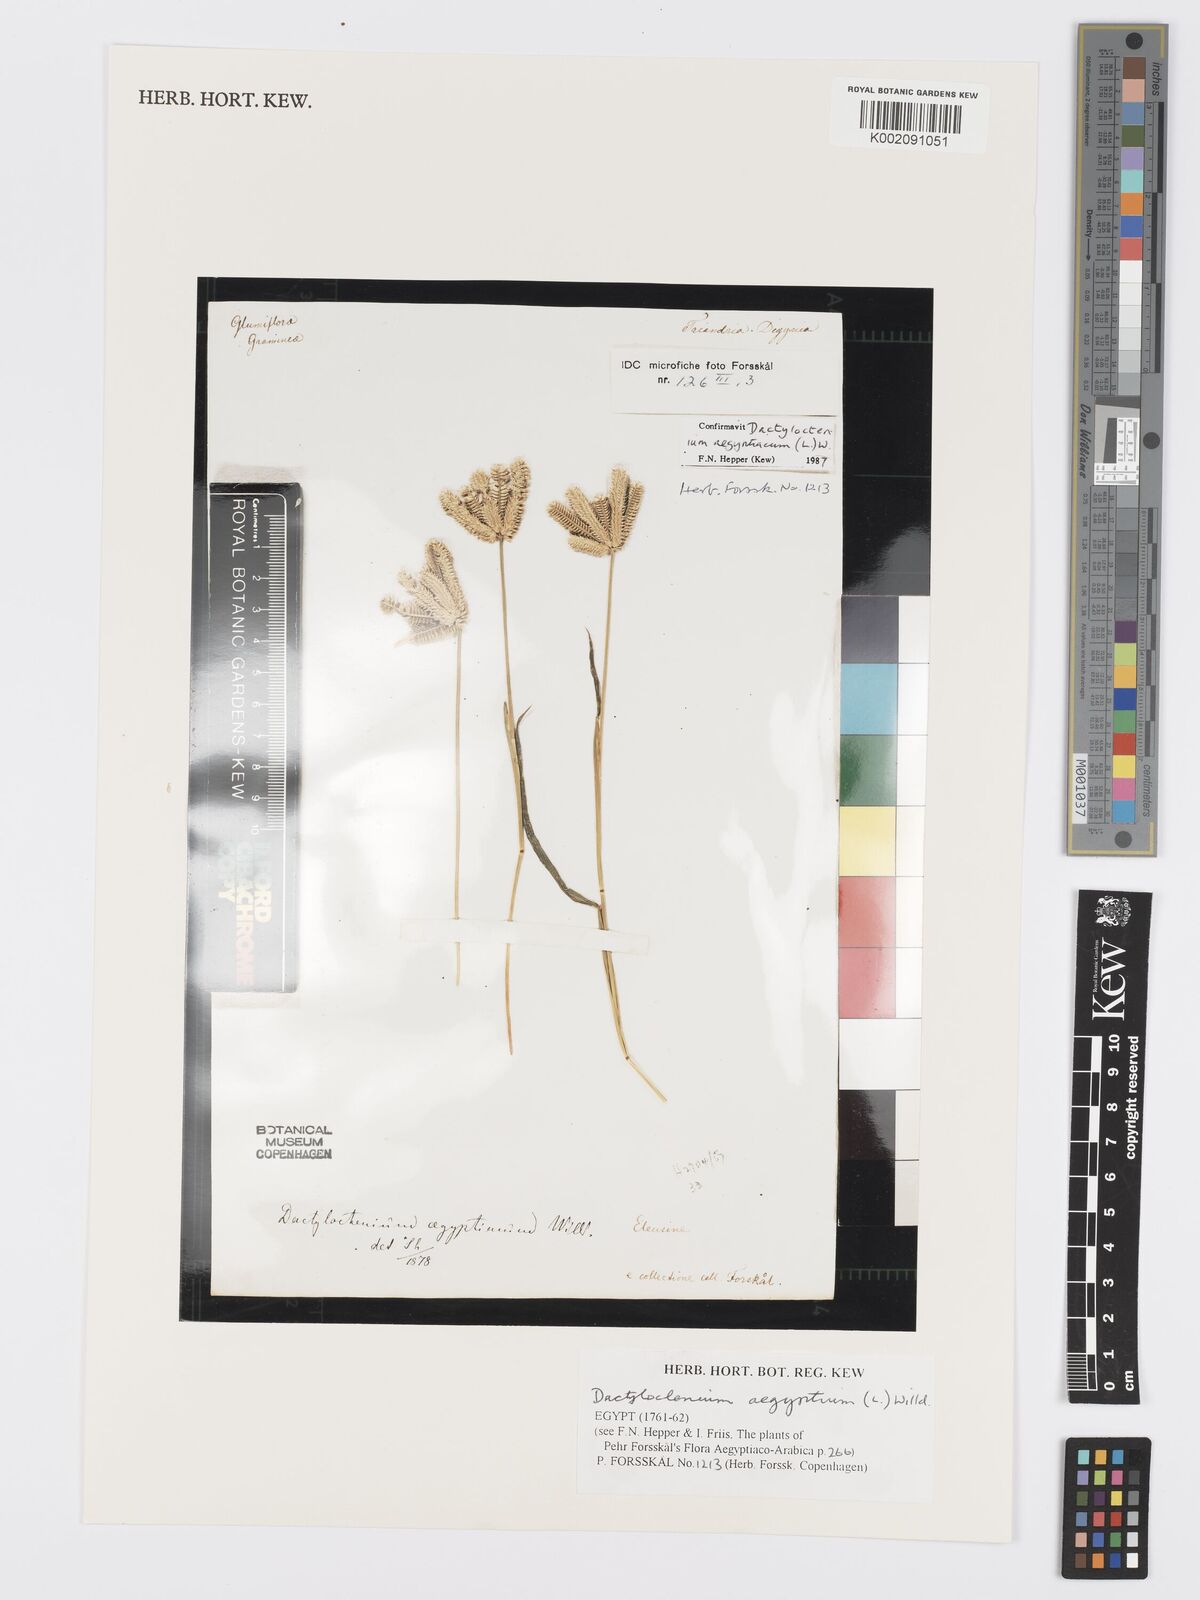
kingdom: Plantae
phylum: Tracheophyta
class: Liliopsida
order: Poales
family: Poaceae
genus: Dactyloctenium
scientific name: Dactyloctenium aegyptium
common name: Egyptian grass
